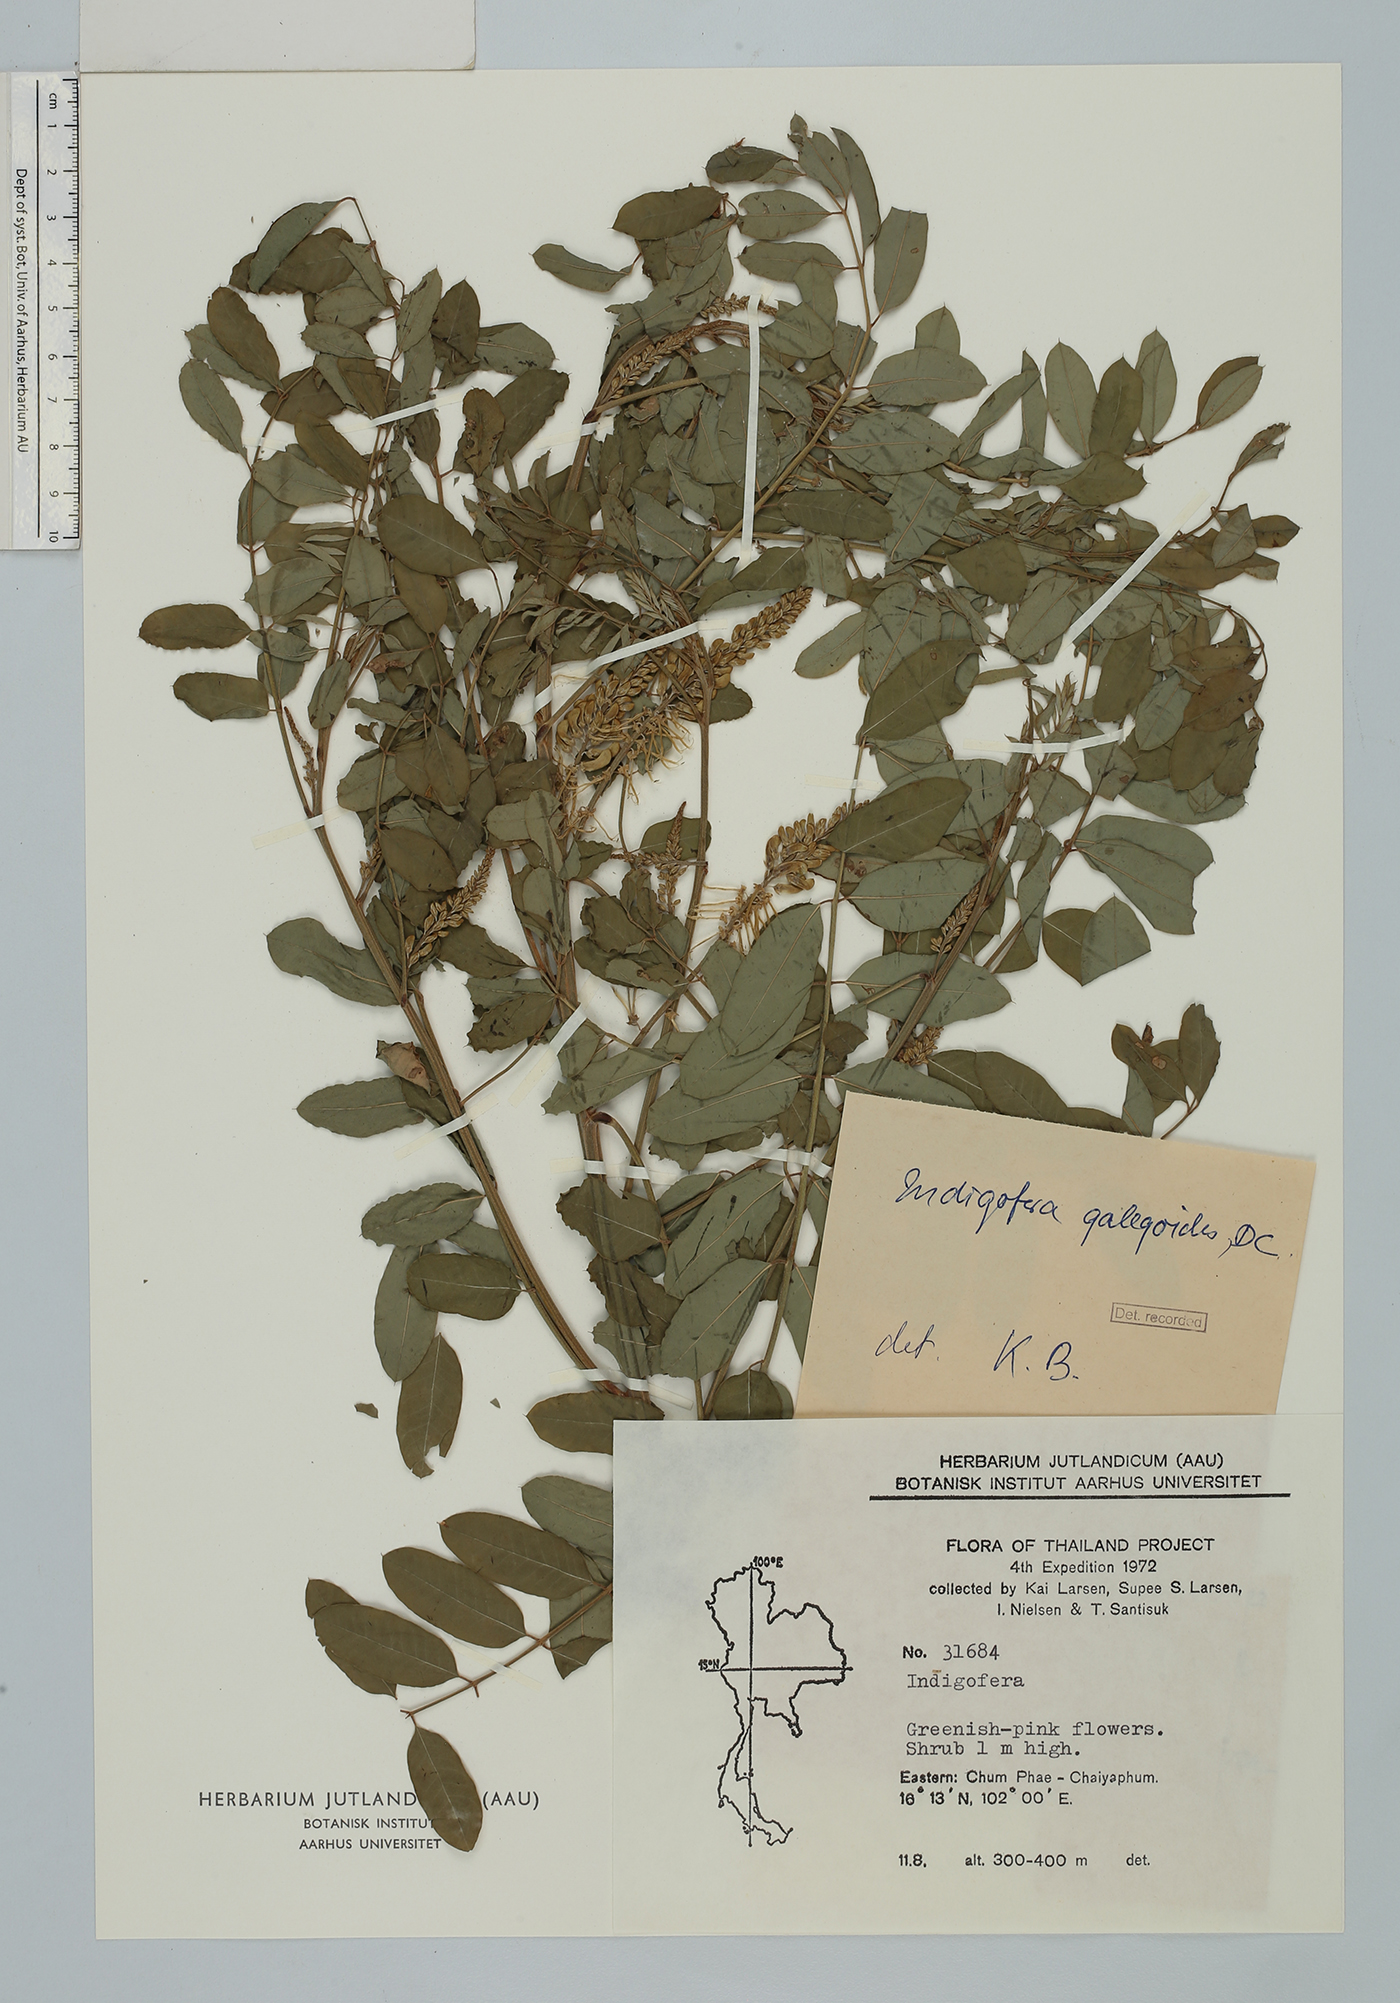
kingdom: Plantae
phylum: Tracheophyta
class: Magnoliopsida
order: Fabales
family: Fabaceae
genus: Indigofera
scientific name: Indigofera galegoides
